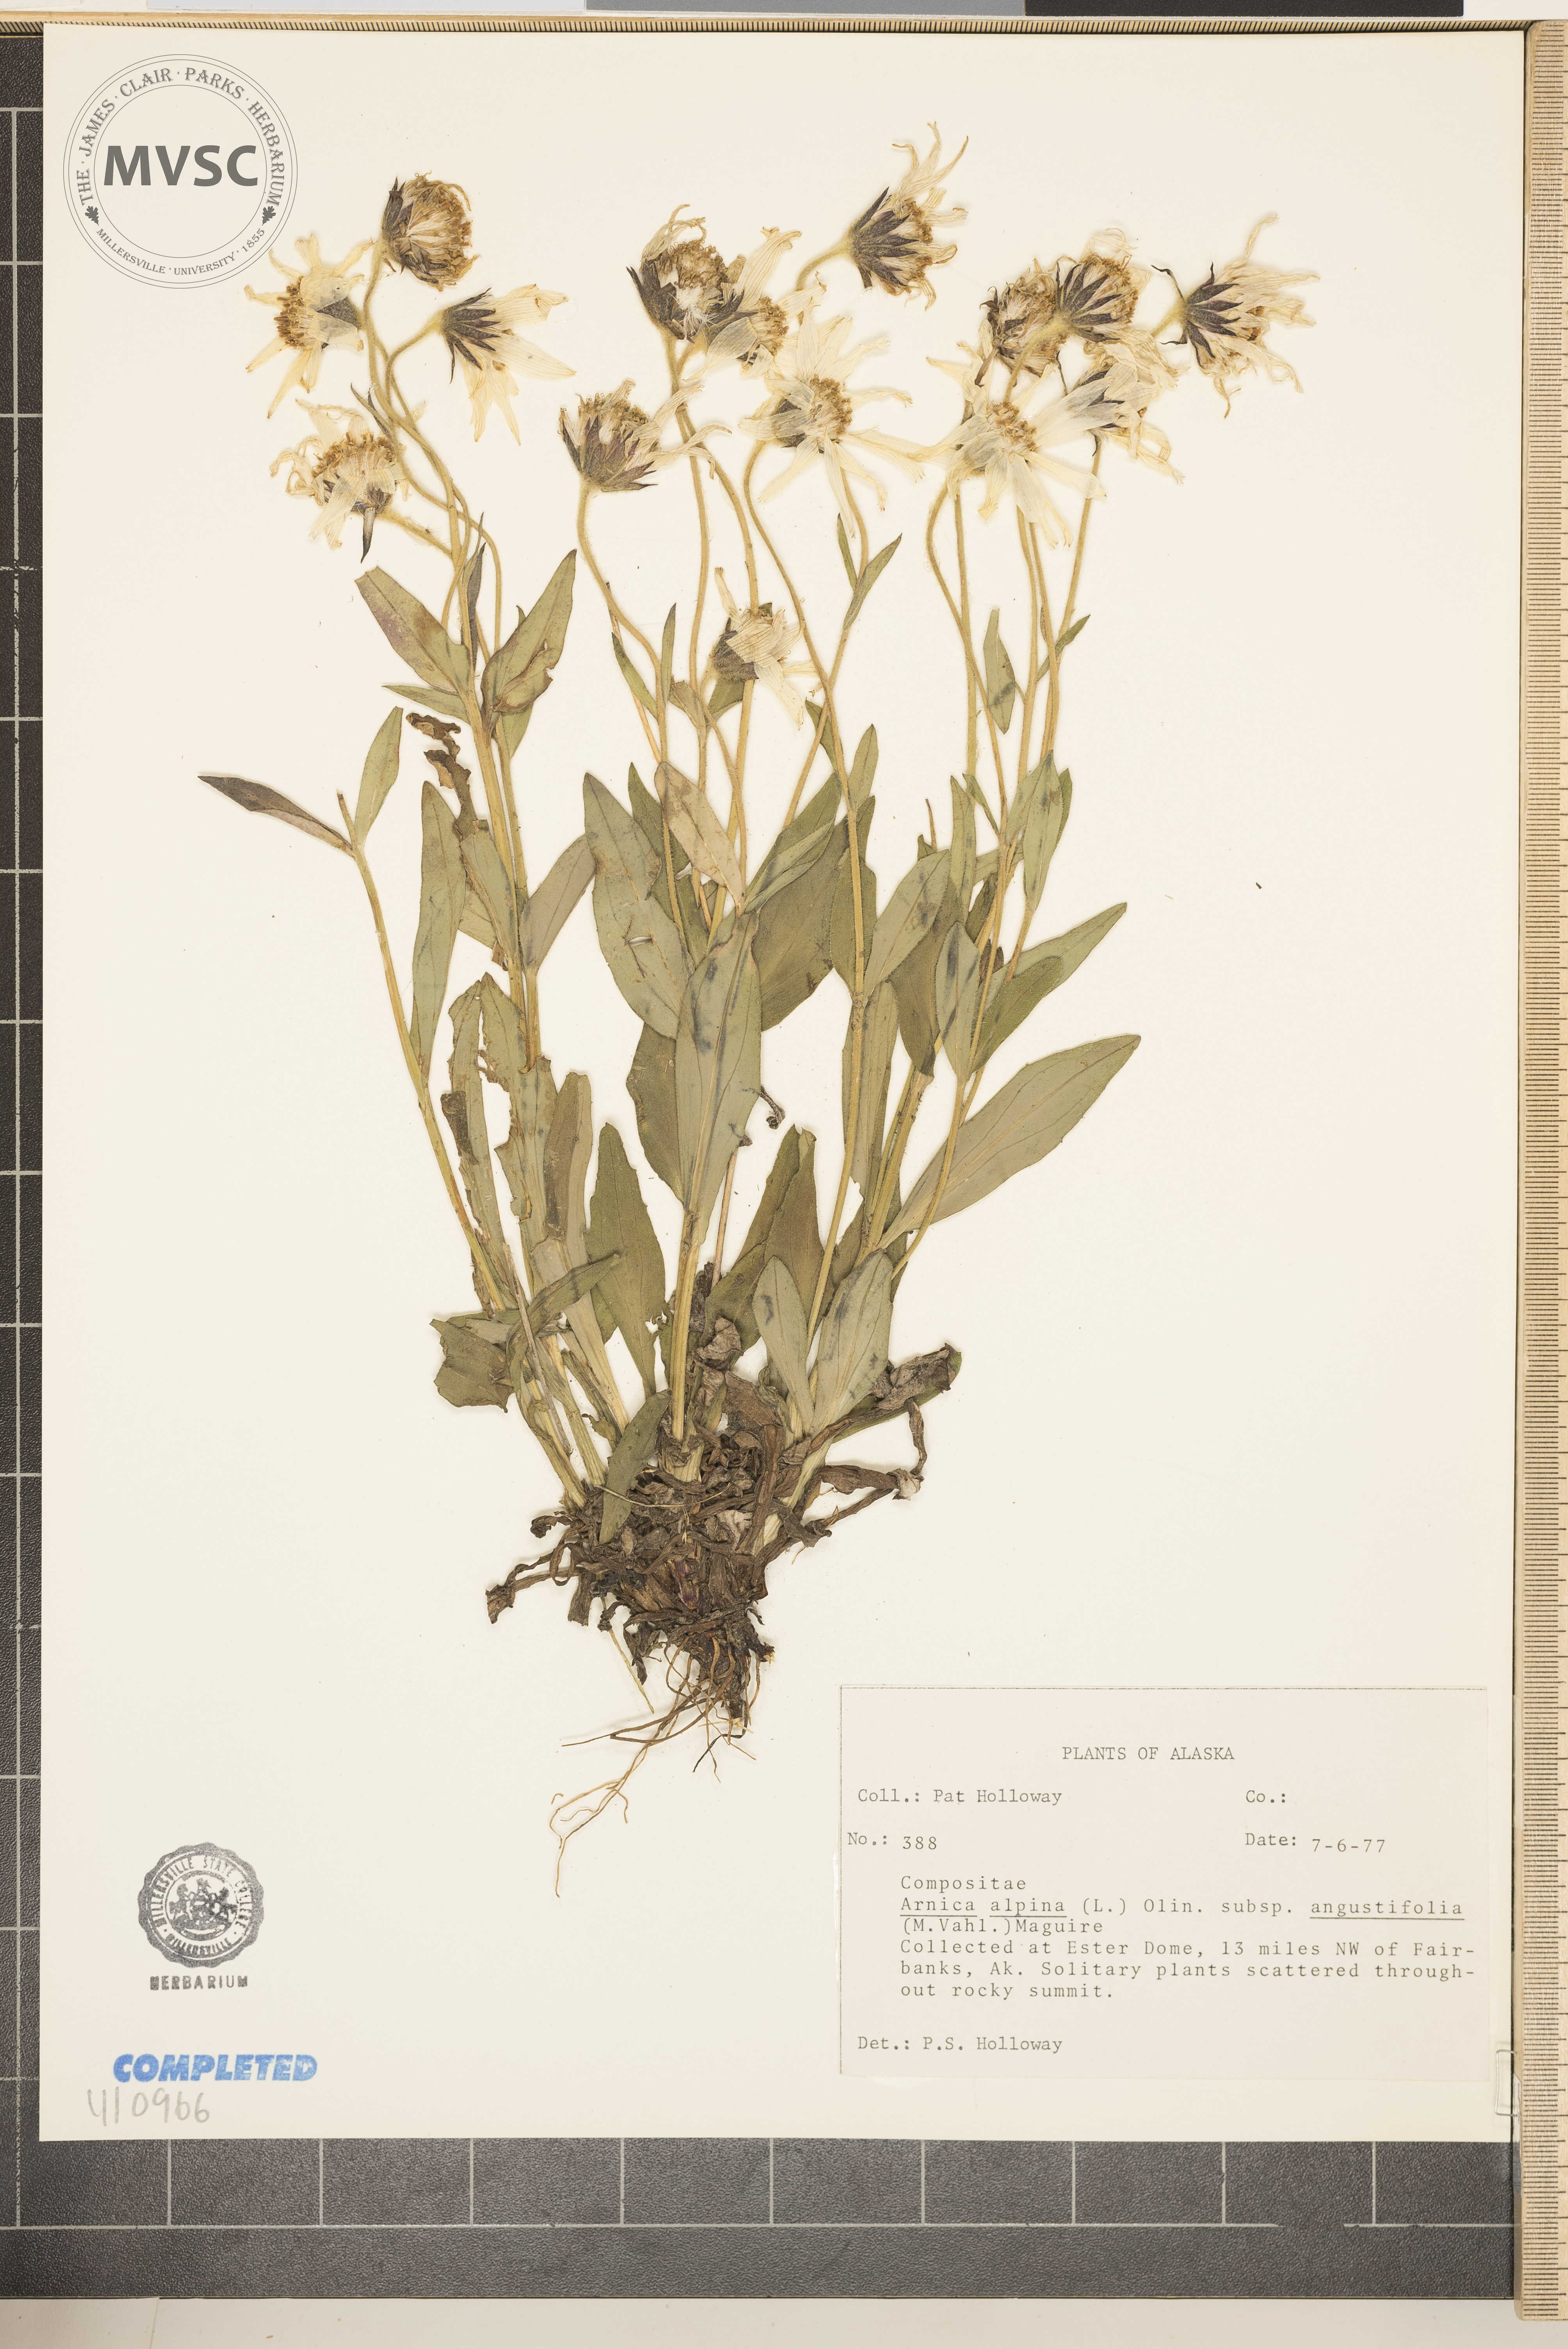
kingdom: Plantae
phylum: Tracheophyta
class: Magnoliopsida
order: Asterales
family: Asteraceae
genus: Arnica
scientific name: Arnica
